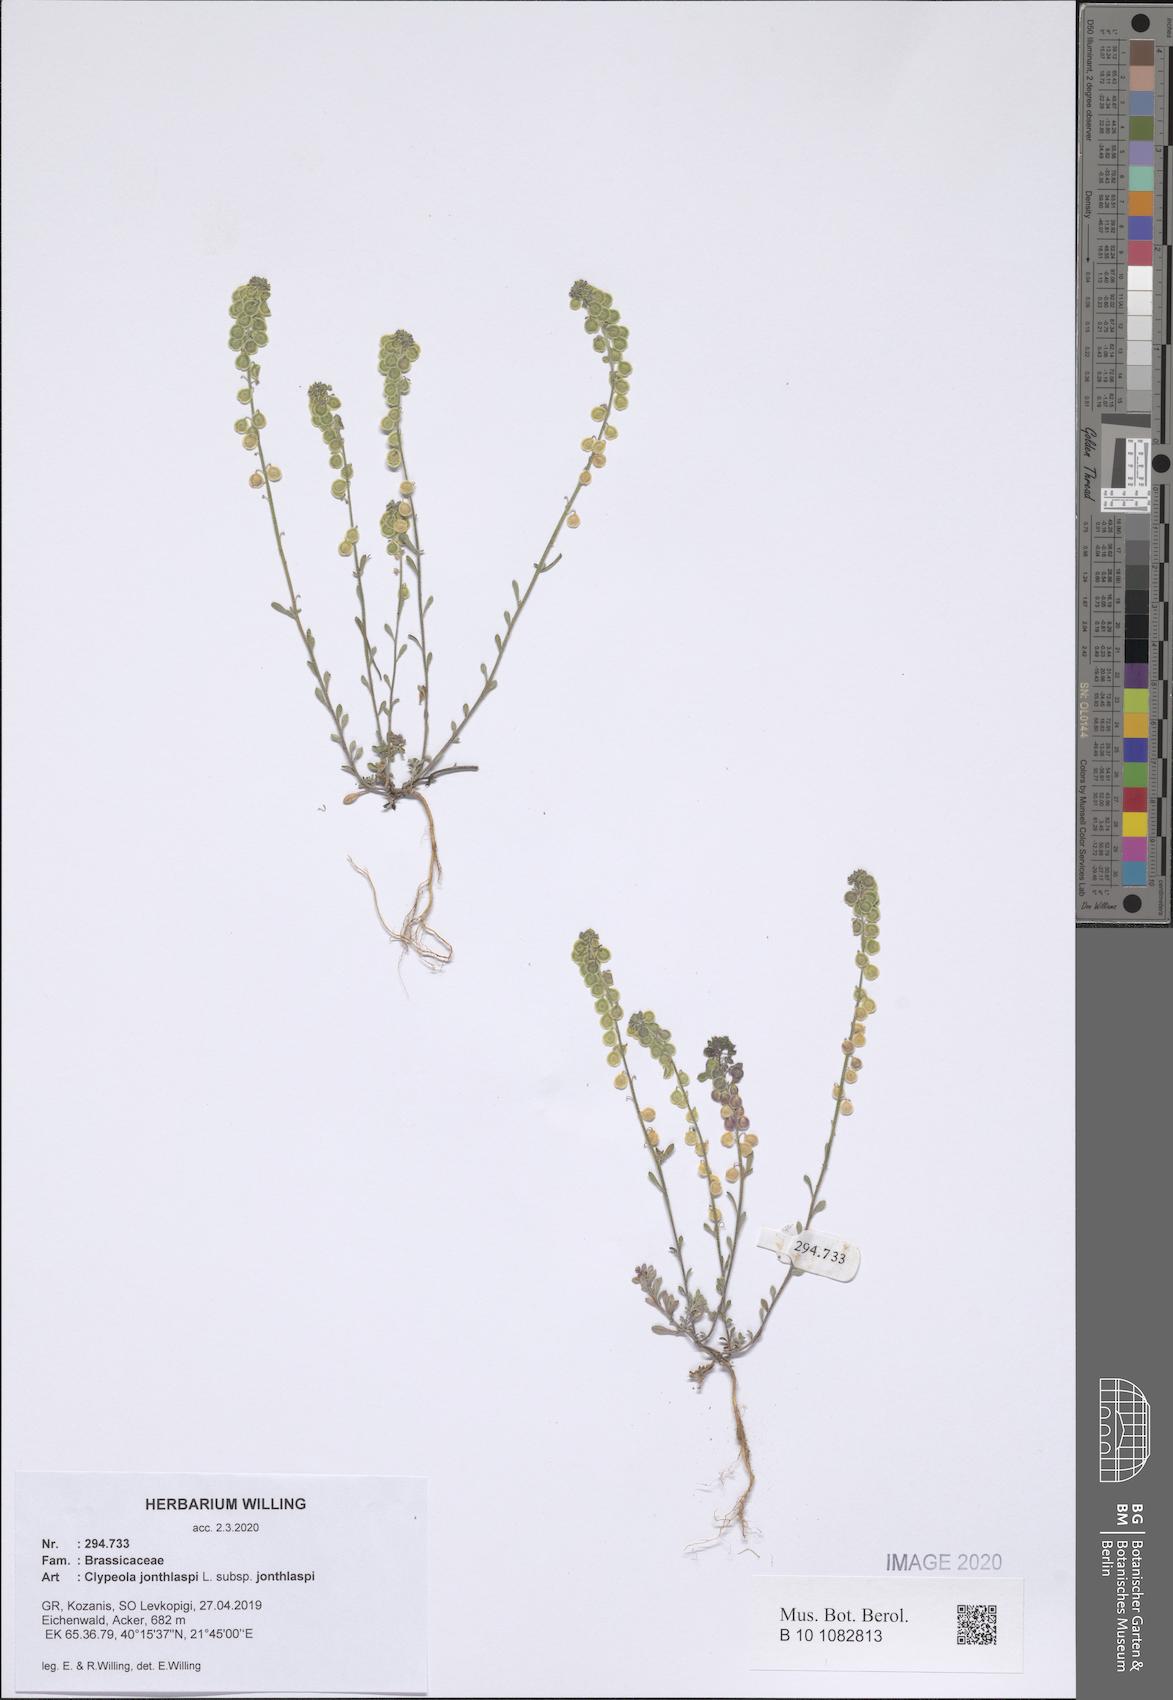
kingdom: Plantae
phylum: Tracheophyta
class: Magnoliopsida
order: Brassicales
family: Brassicaceae
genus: Clypeola
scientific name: Clypeola jonthlaspi
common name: Disk cress
